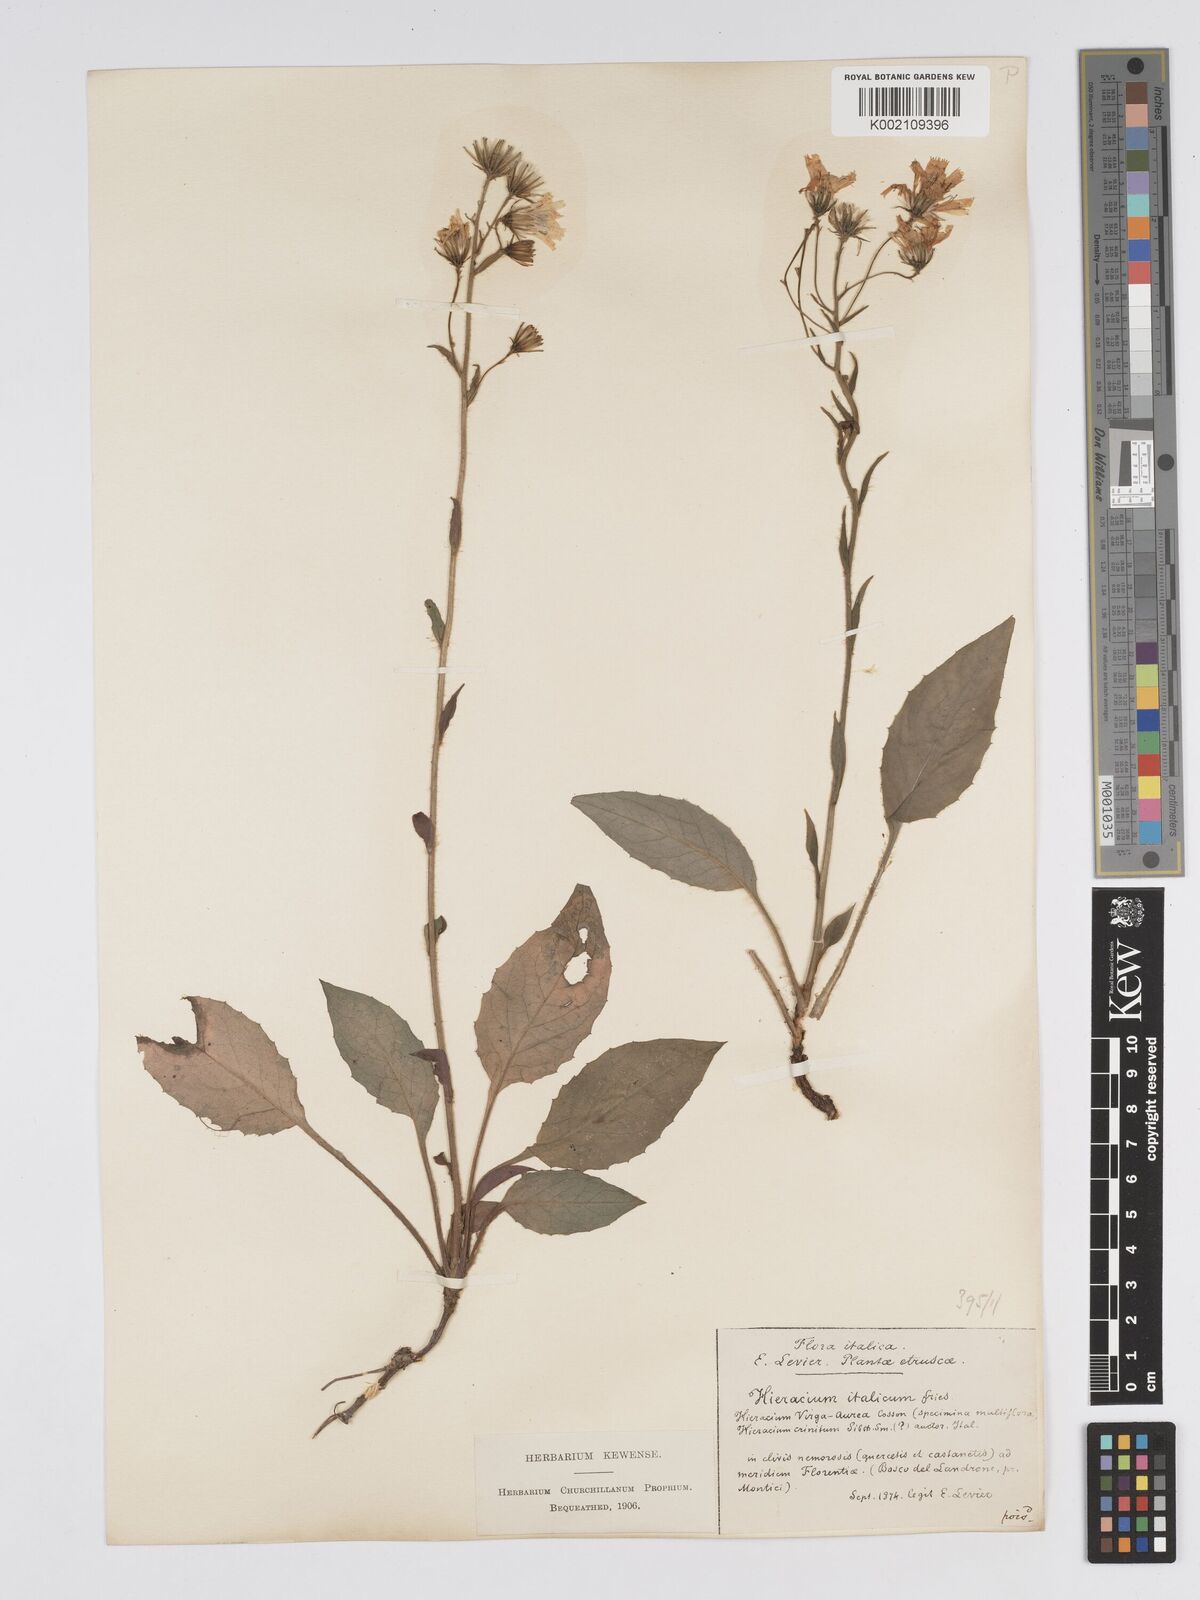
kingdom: Plantae
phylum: Tracheophyta
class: Magnoliopsida
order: Asterales
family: Asteraceae
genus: Hieracium
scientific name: Hieracium racemosum
